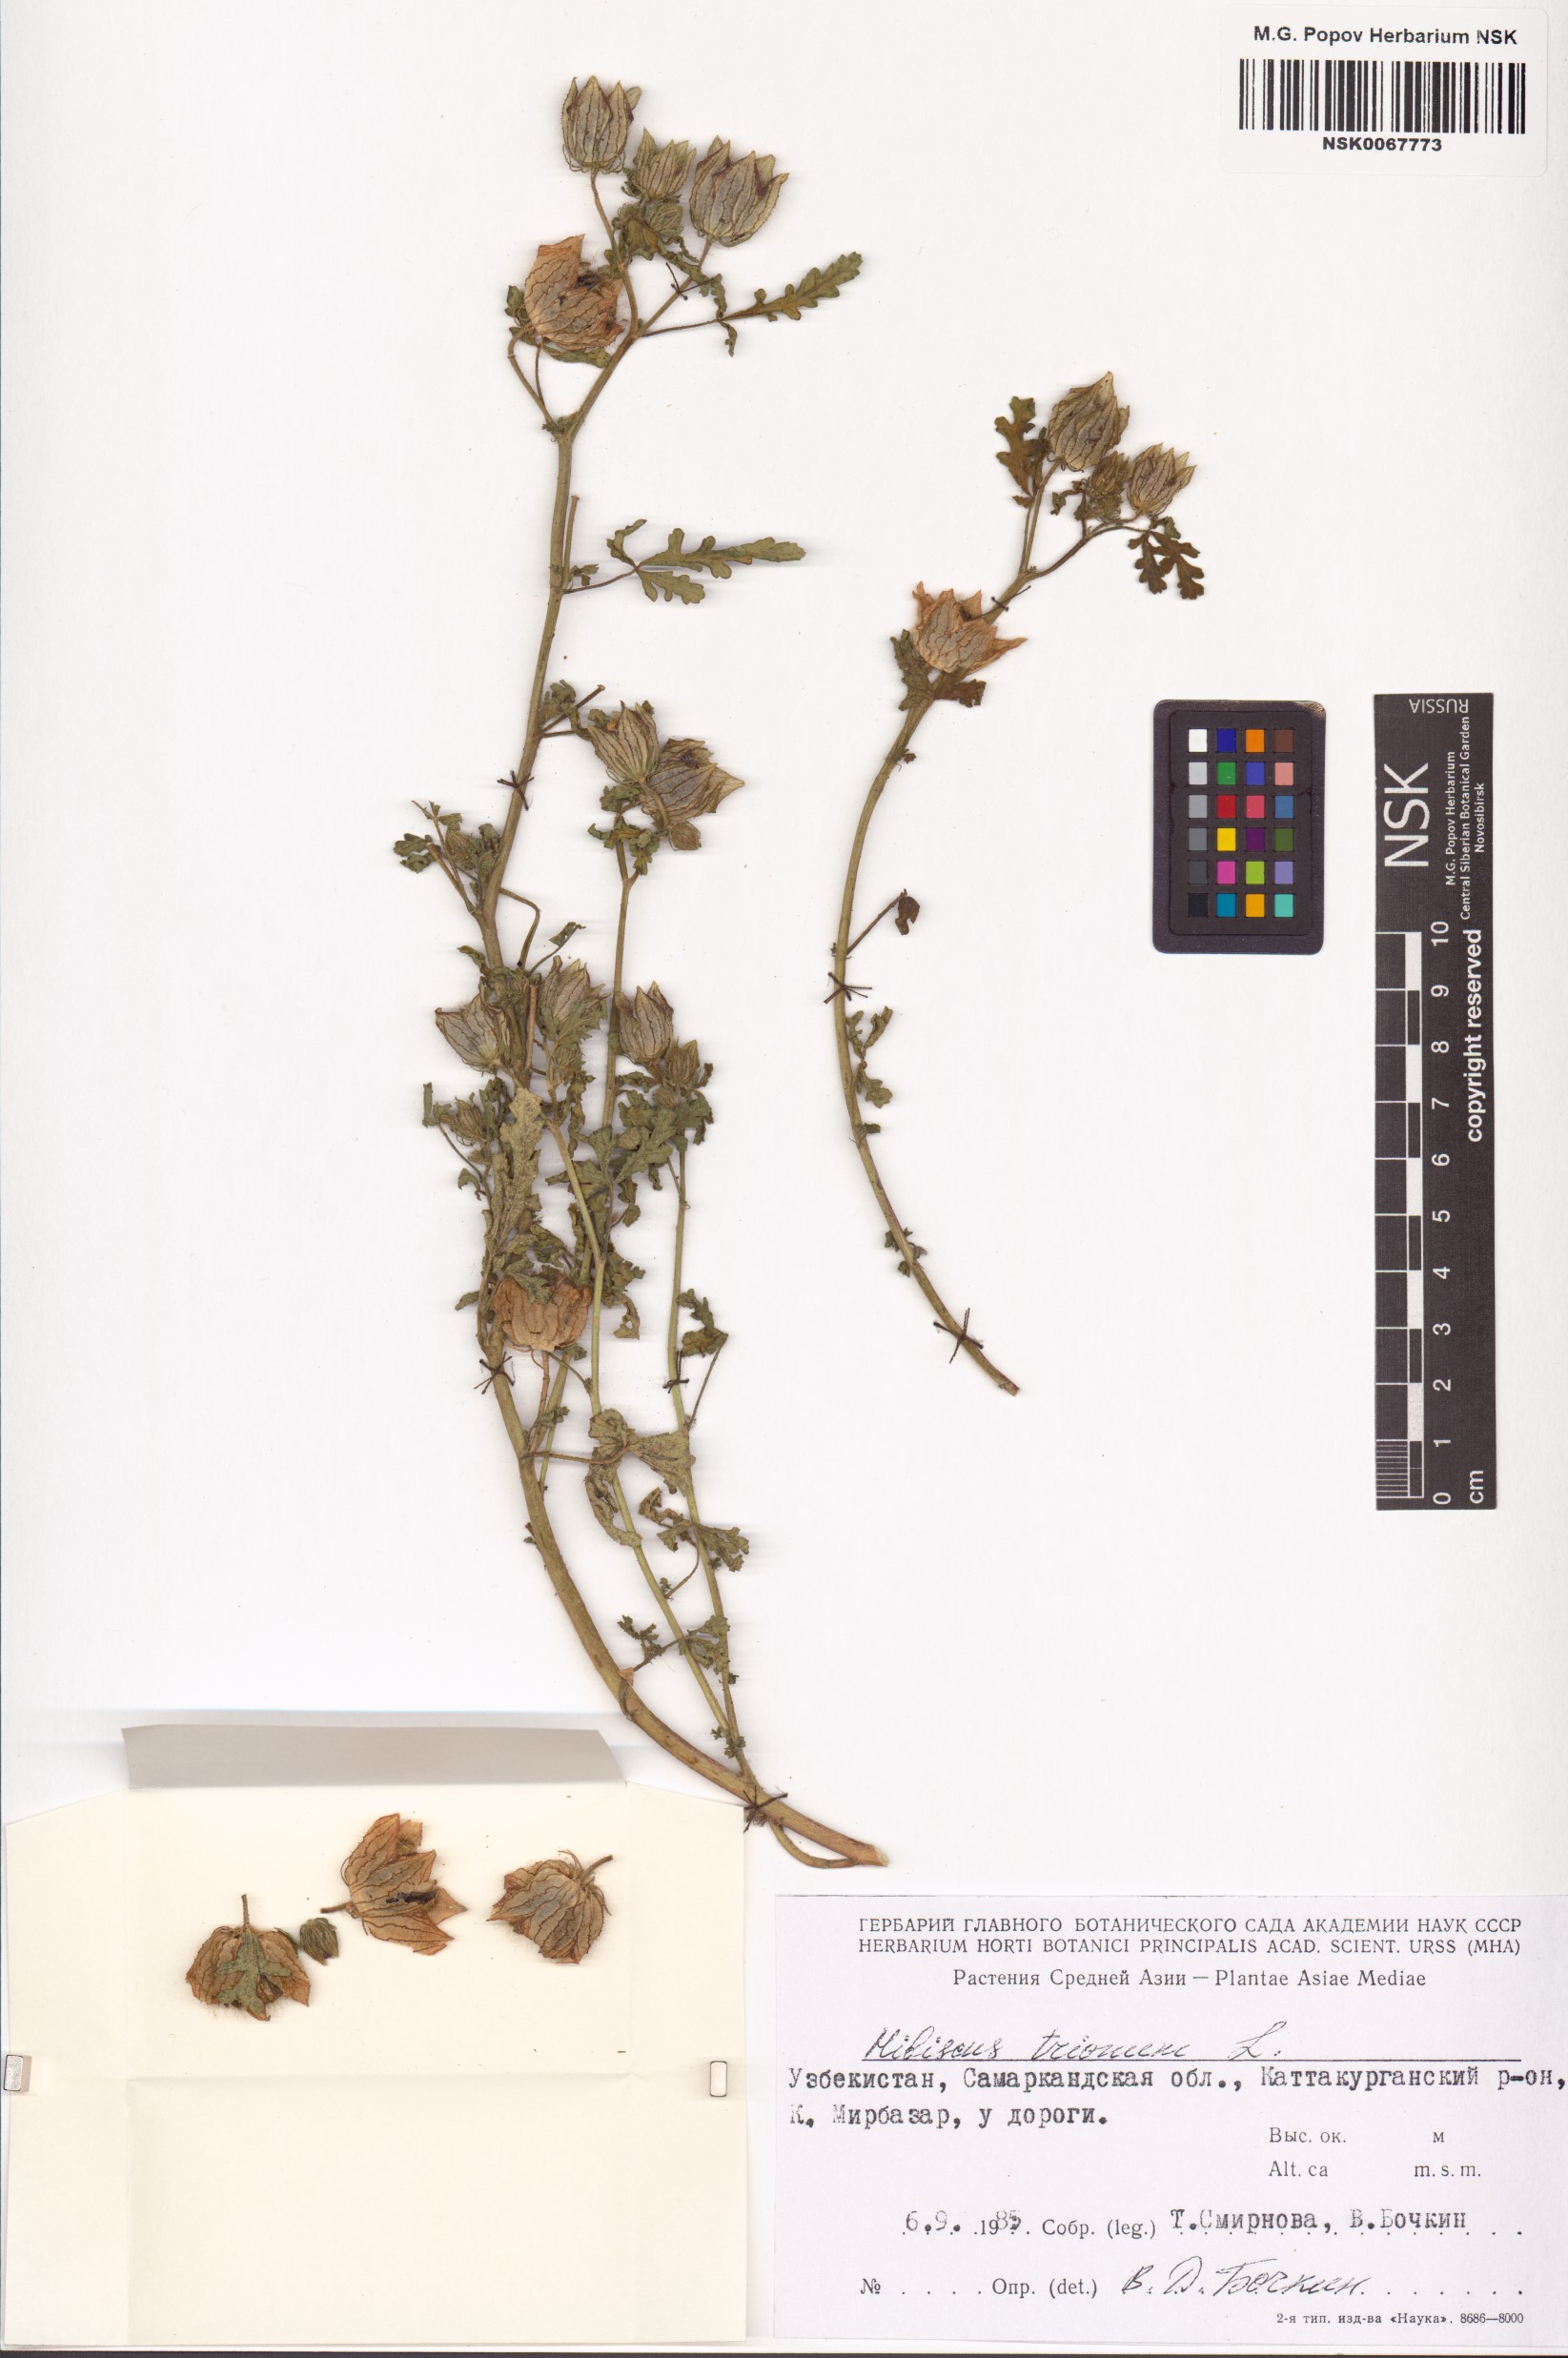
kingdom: Plantae
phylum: Tracheophyta
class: Magnoliopsida
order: Malvales
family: Malvaceae
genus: Hibiscus
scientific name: Hibiscus trionum
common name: Bladder ketmia
